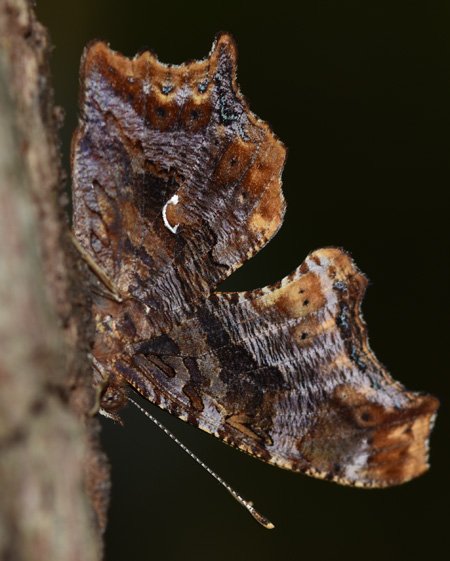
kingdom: Animalia
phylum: Arthropoda
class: Insecta
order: Lepidoptera
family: Nymphalidae
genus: Polygonia
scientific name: Polygonia comma
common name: Eastern Comma
